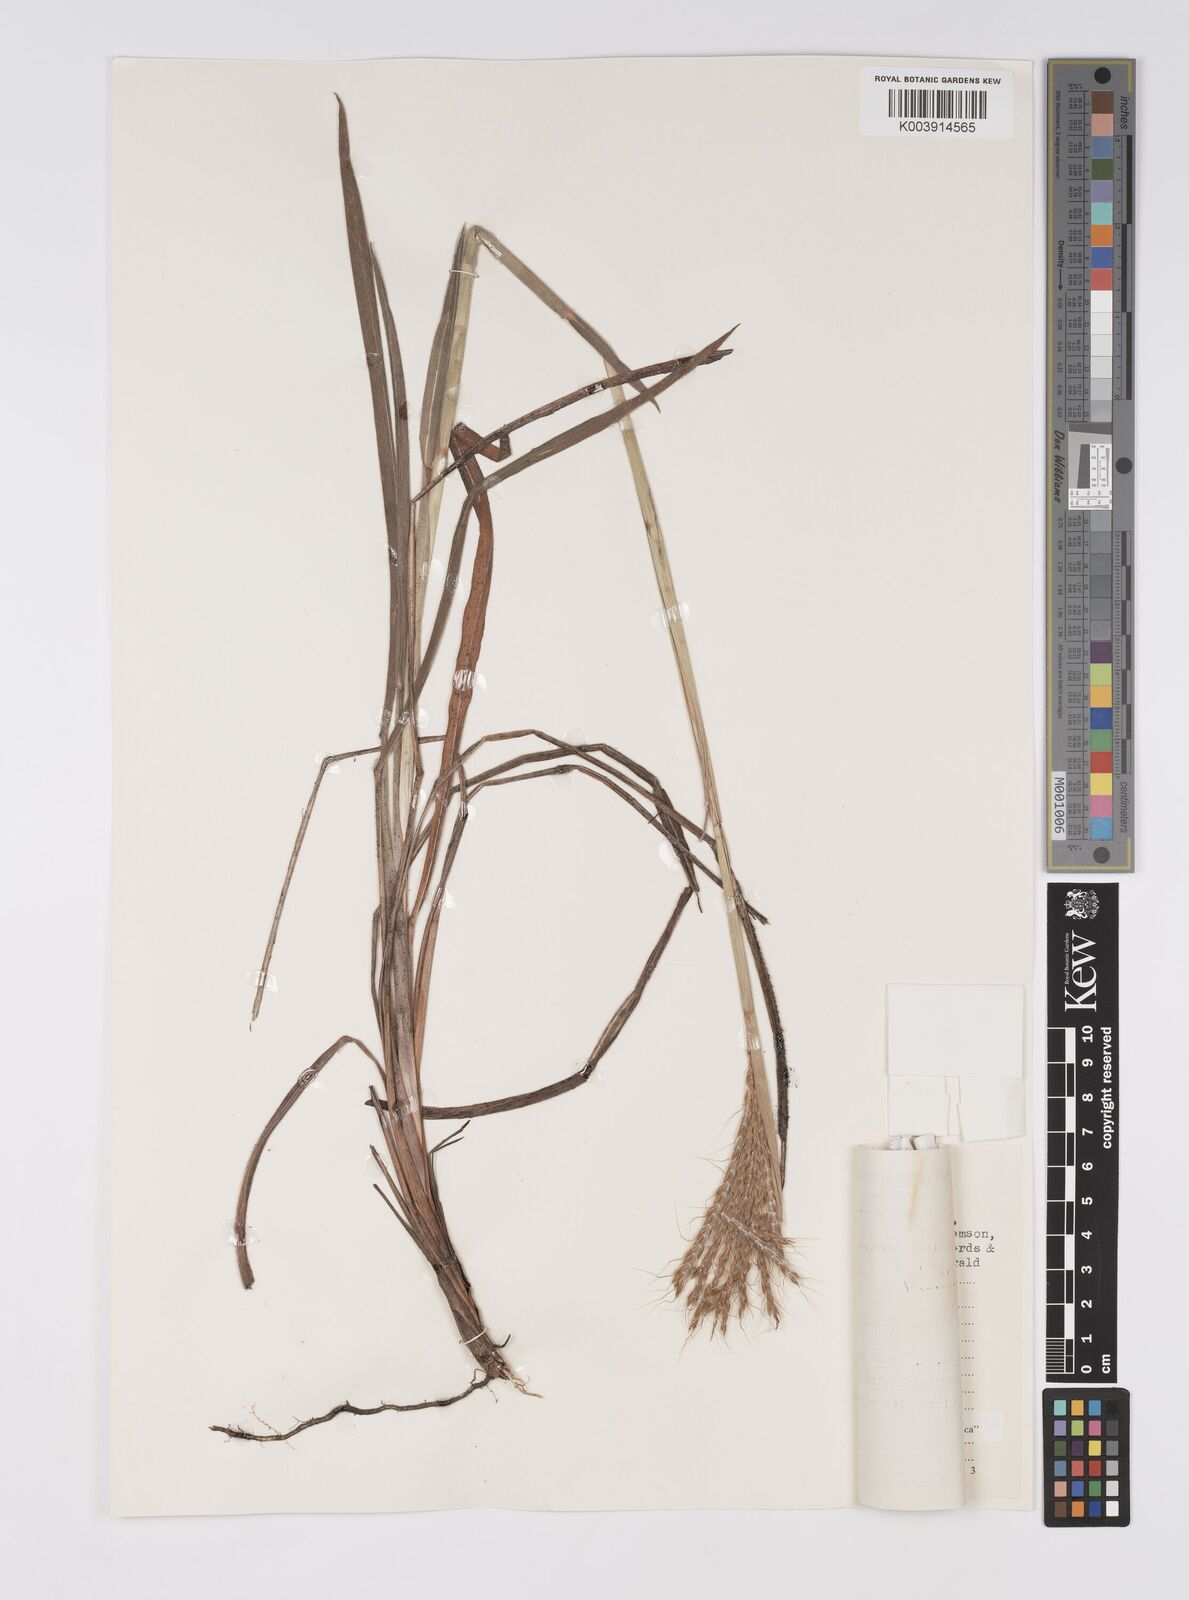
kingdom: Plantae
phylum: Tracheophyta
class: Liliopsida
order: Poales
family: Poaceae
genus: Eulalia
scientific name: Eulalia villosa
